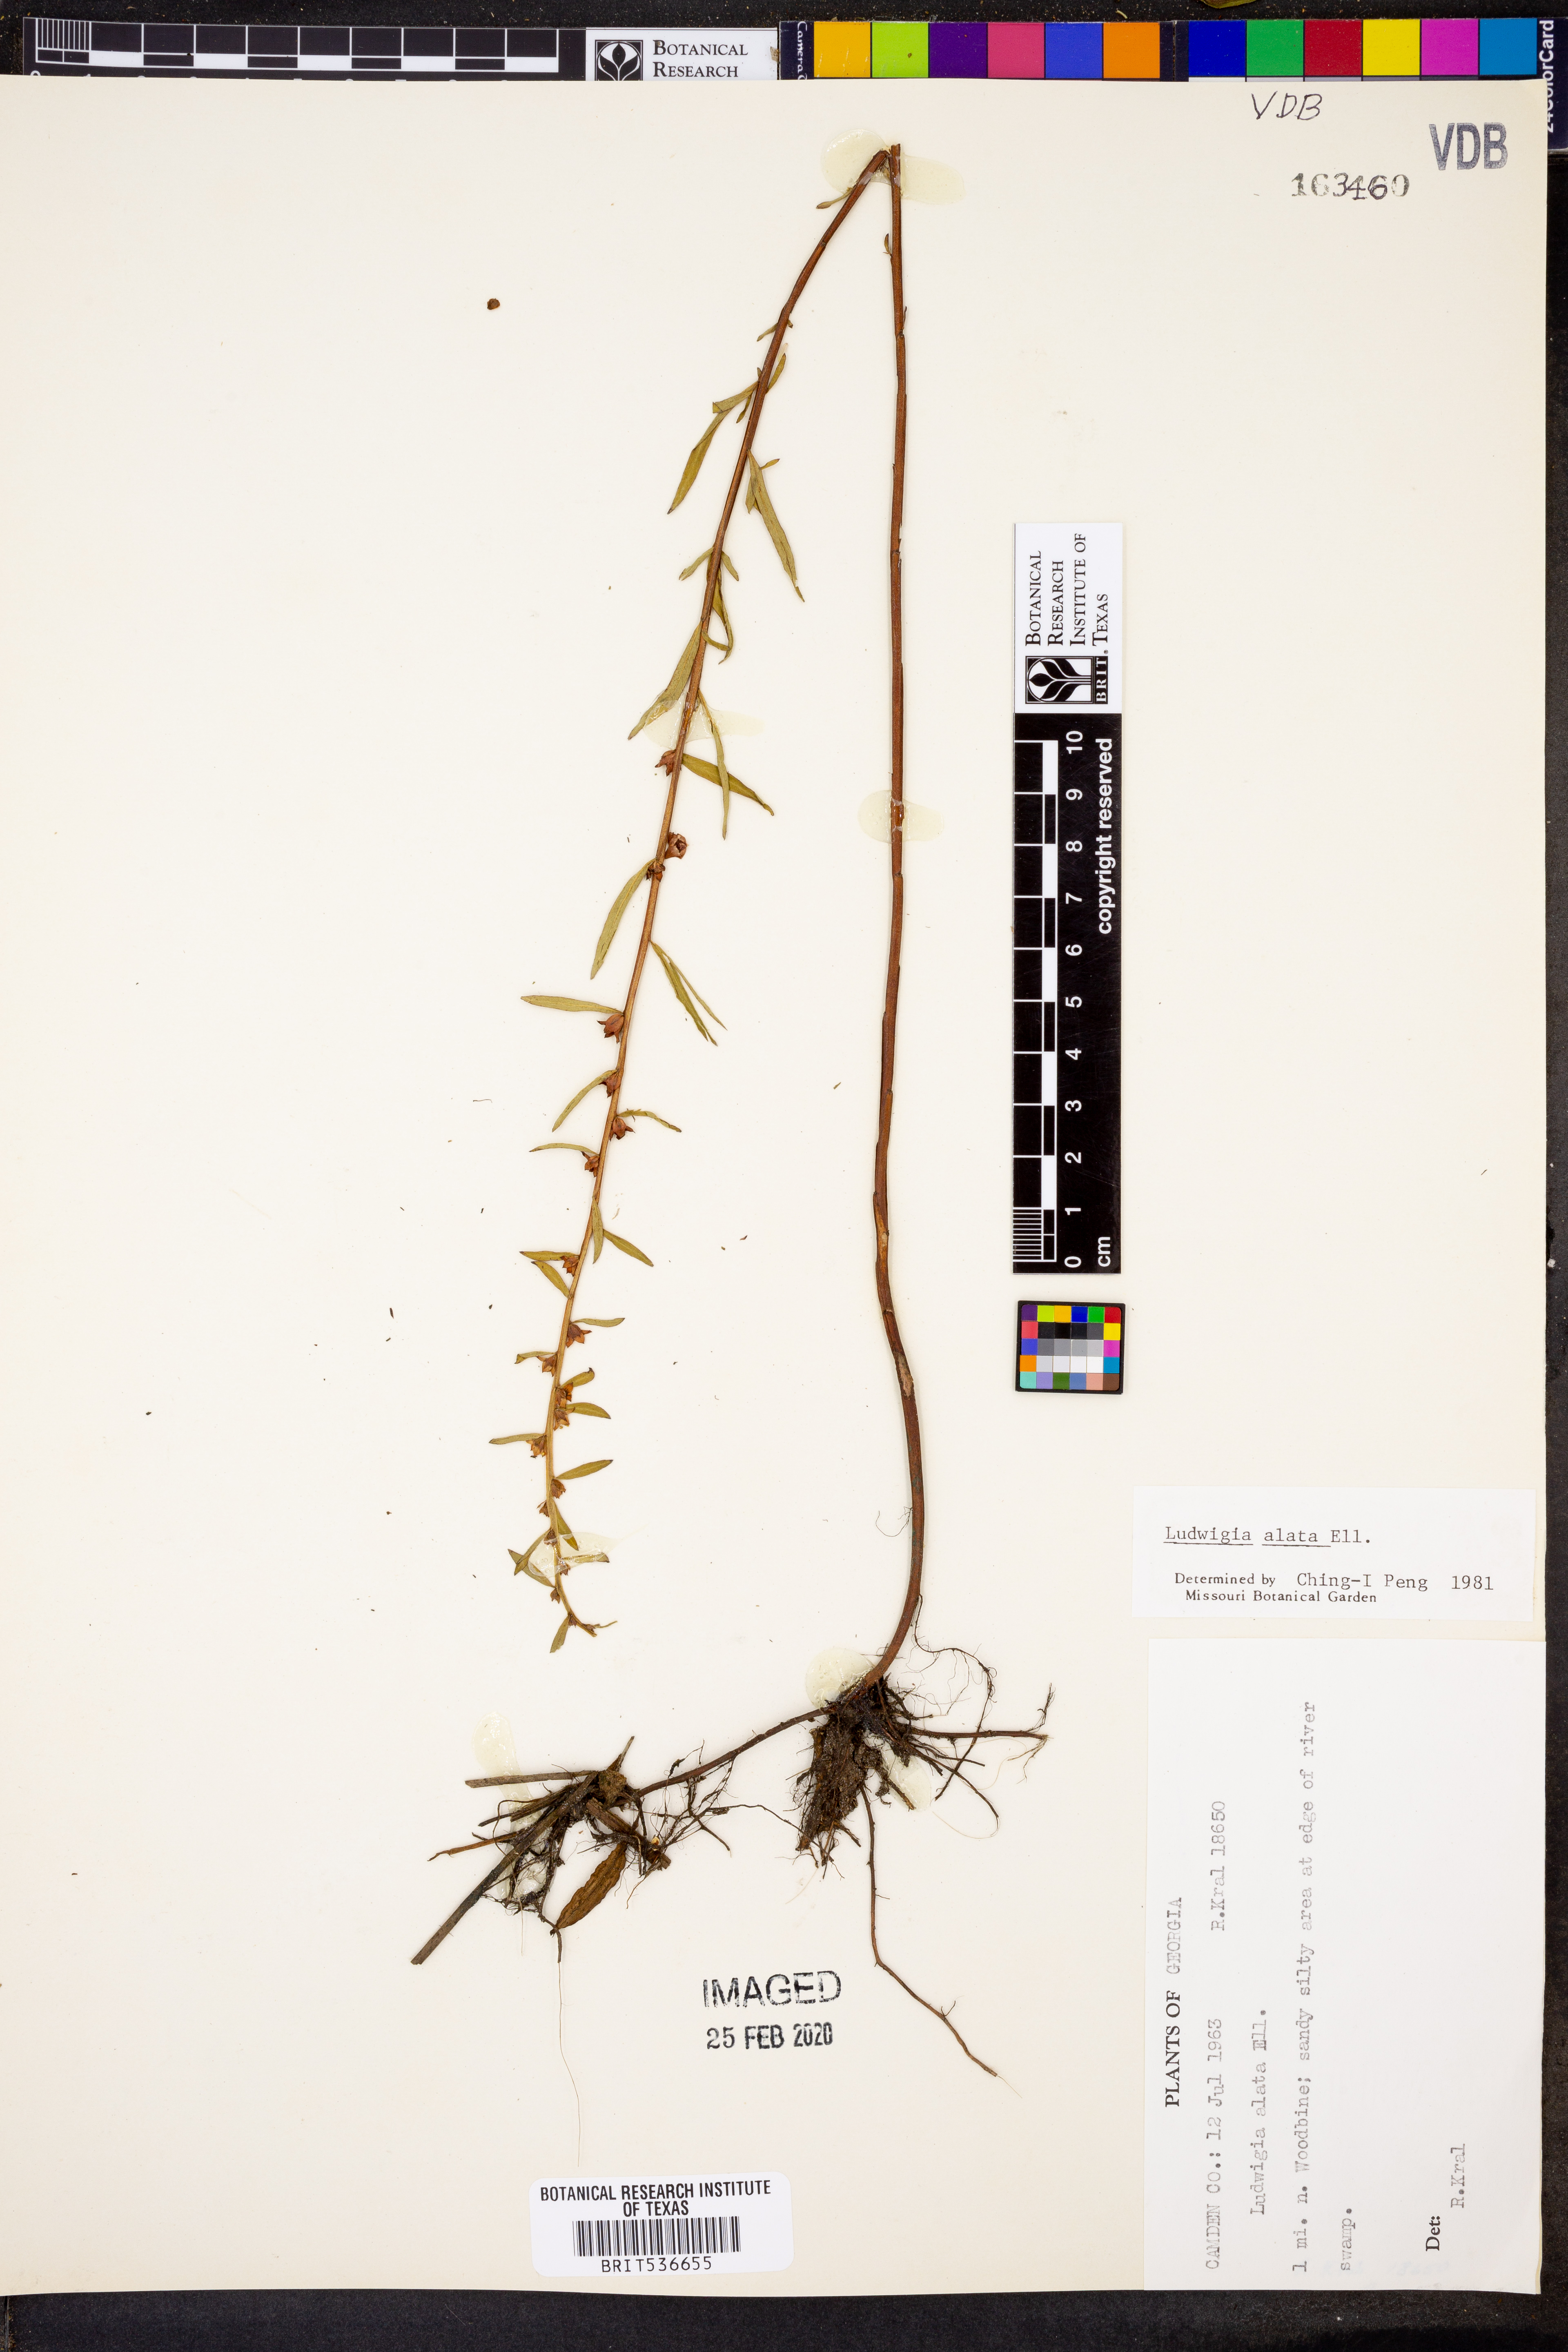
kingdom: Plantae
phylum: Tracheophyta
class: Magnoliopsida
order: Myrtales
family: Onagraceae
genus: Ludwigia
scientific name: Ludwigia alata
